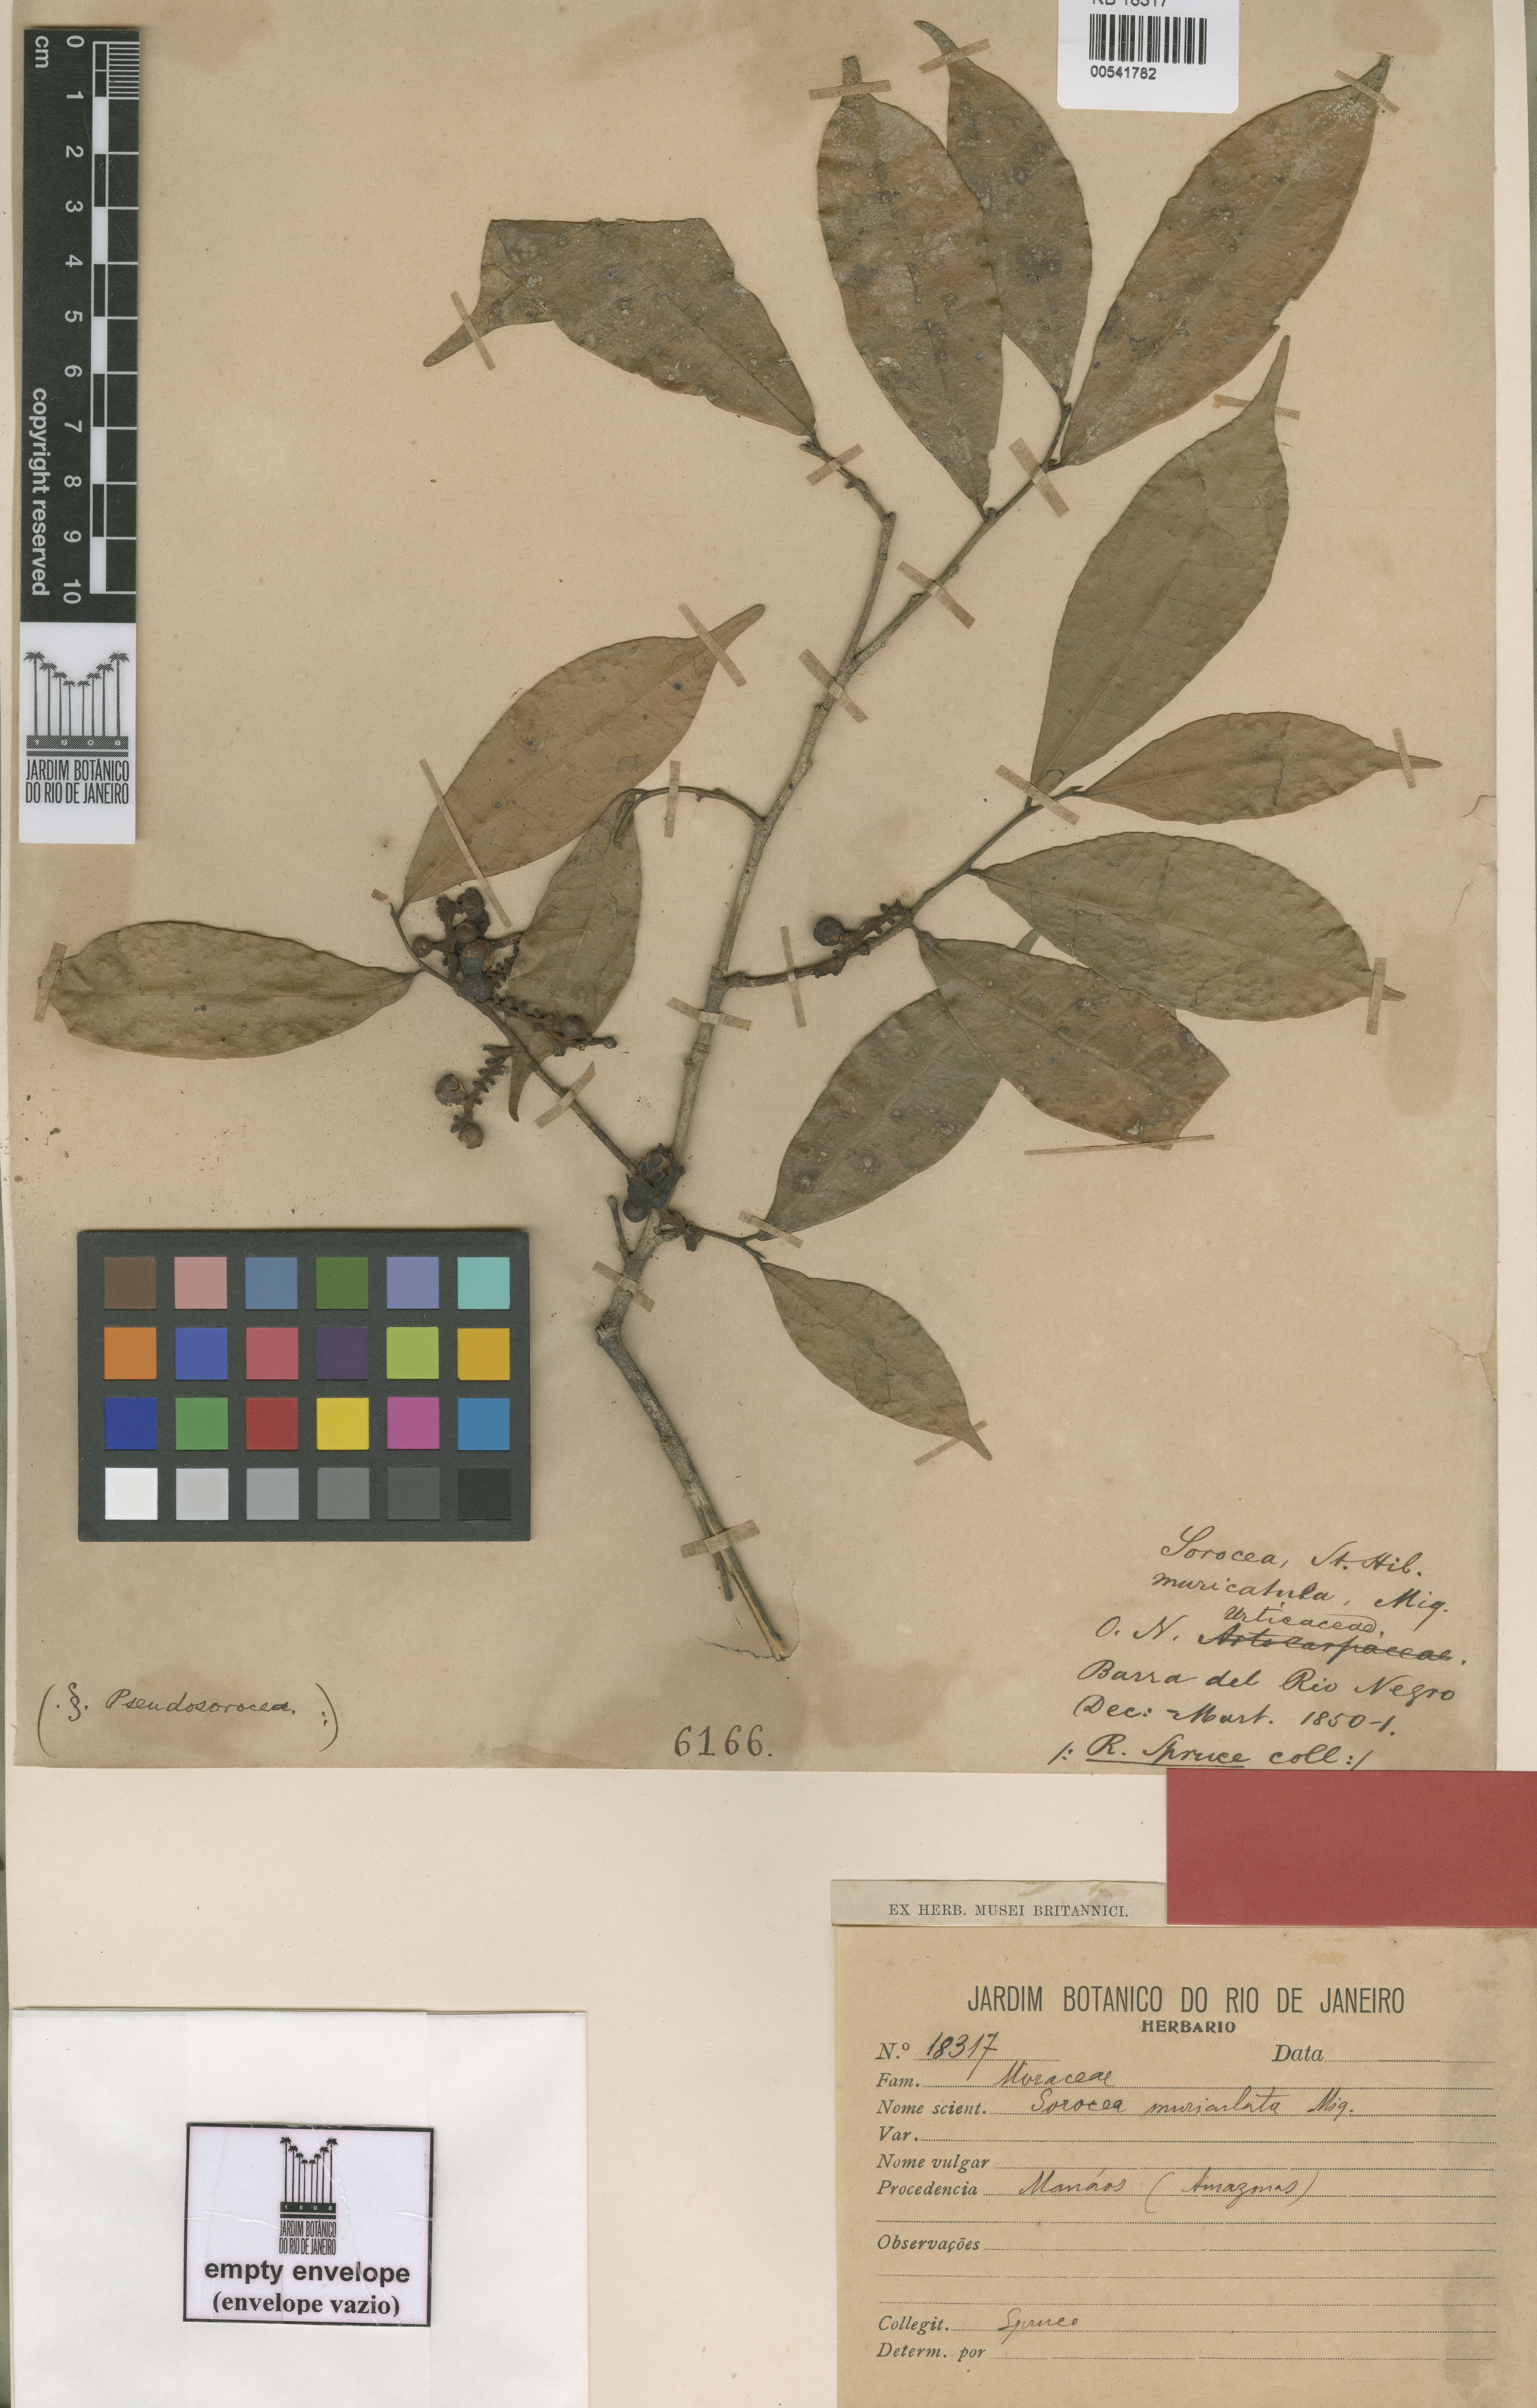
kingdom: Plantae
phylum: Tracheophyta
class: Magnoliopsida
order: Rosales
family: Moraceae
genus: Sorocea
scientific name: Sorocea muriculata
